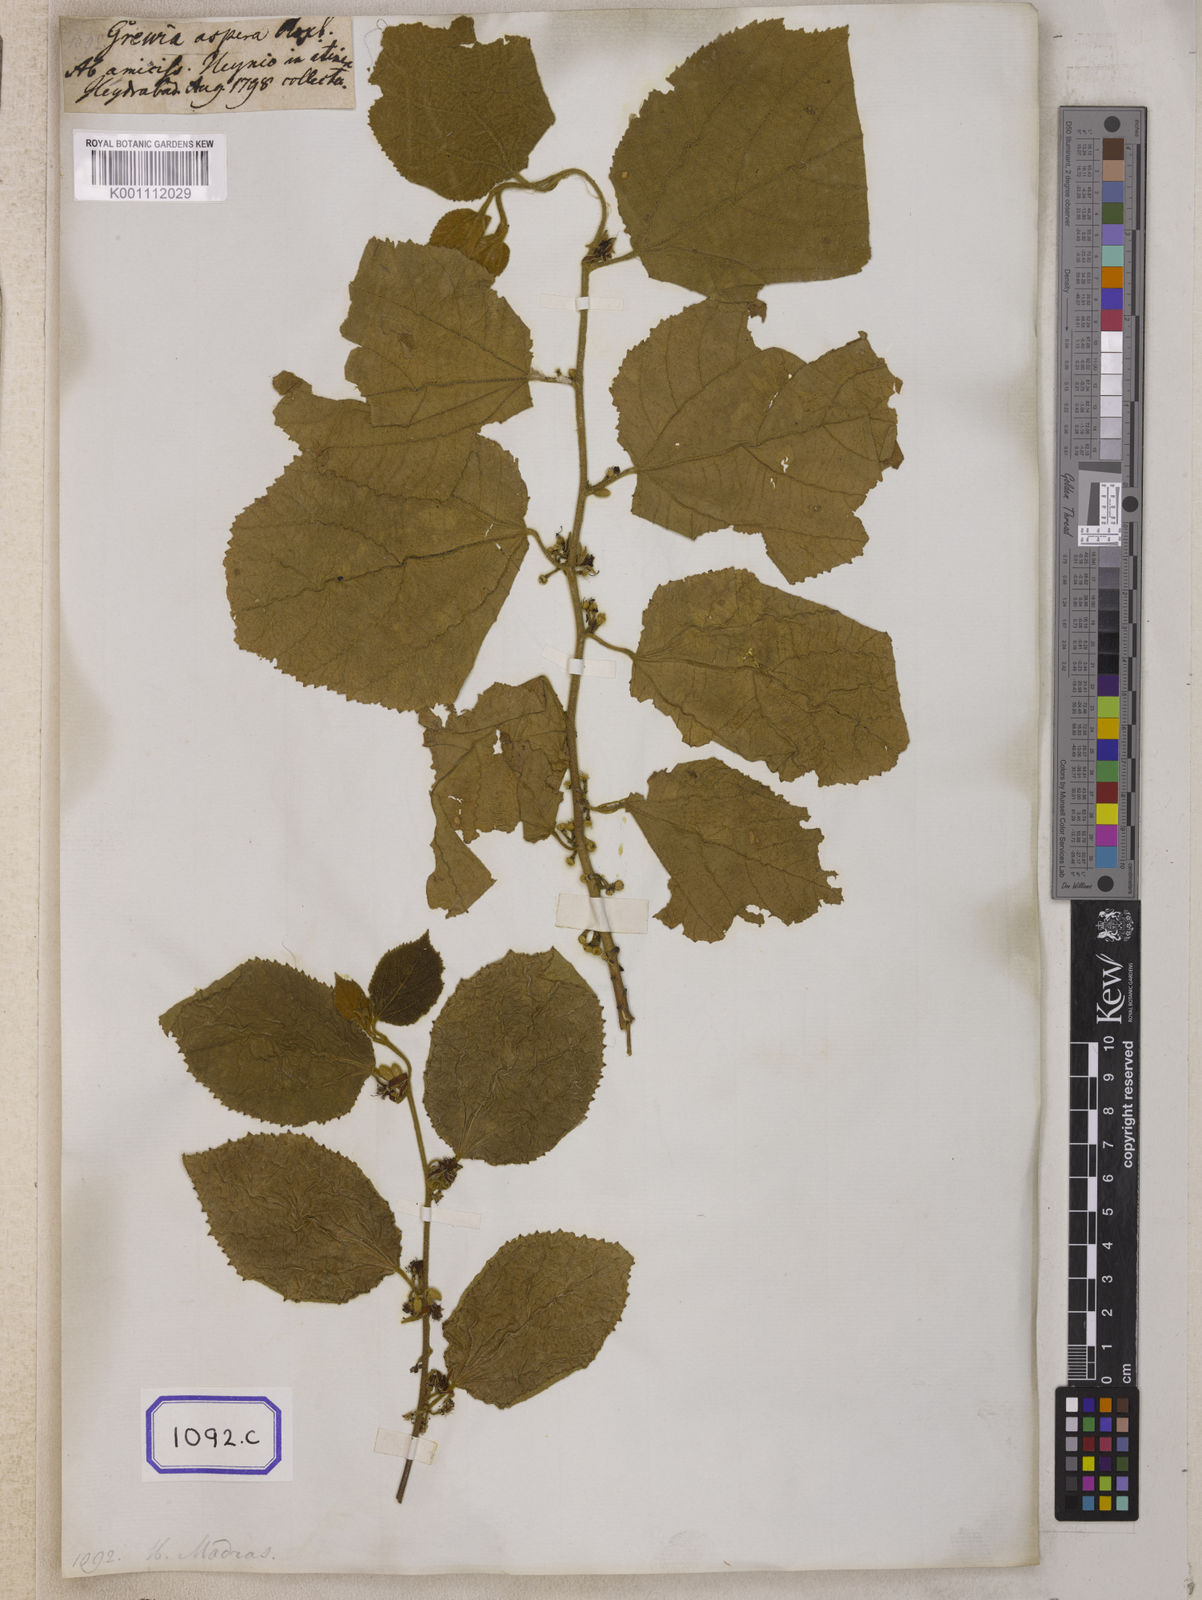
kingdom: Plantae
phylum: Tracheophyta
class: Magnoliopsida
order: Malvales
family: Malvaceae
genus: Grewia
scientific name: Grewia abutilifolia
